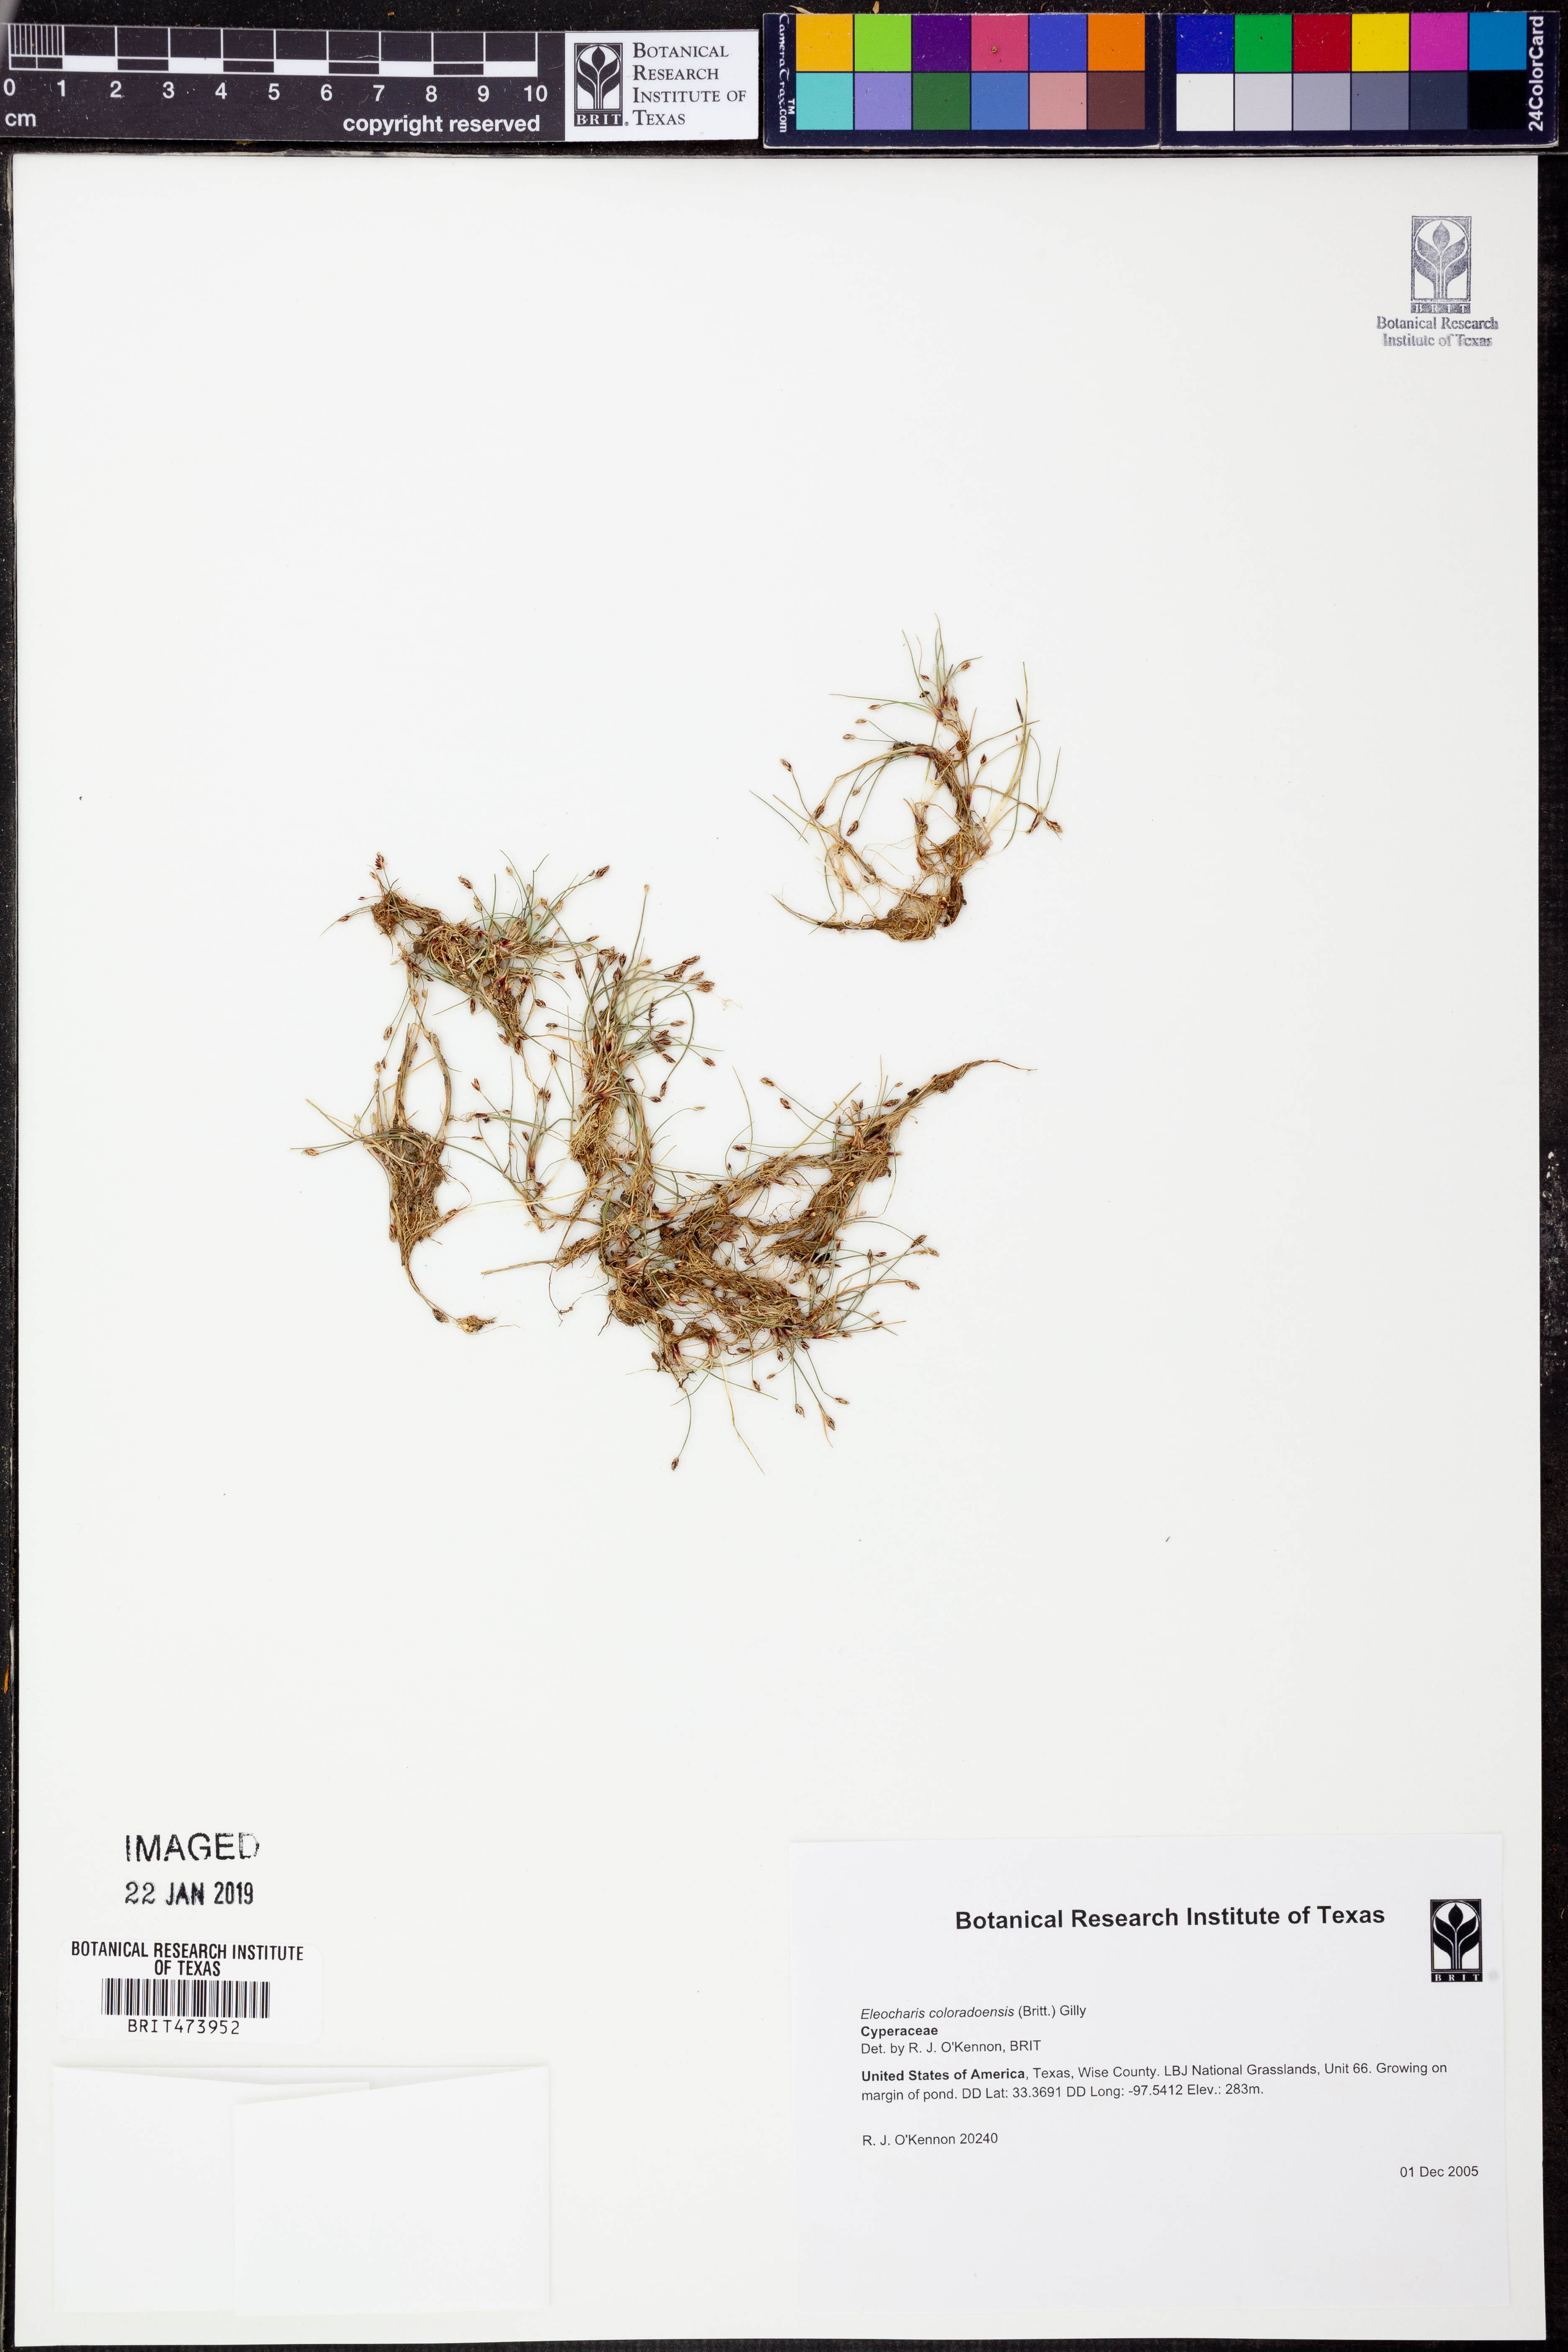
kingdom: Plantae
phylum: Tracheophyta
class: Liliopsida
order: Poales
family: Cyperaceae
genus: Eleocharis
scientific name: Eleocharis coloradoensis
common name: Colorado spikerush
